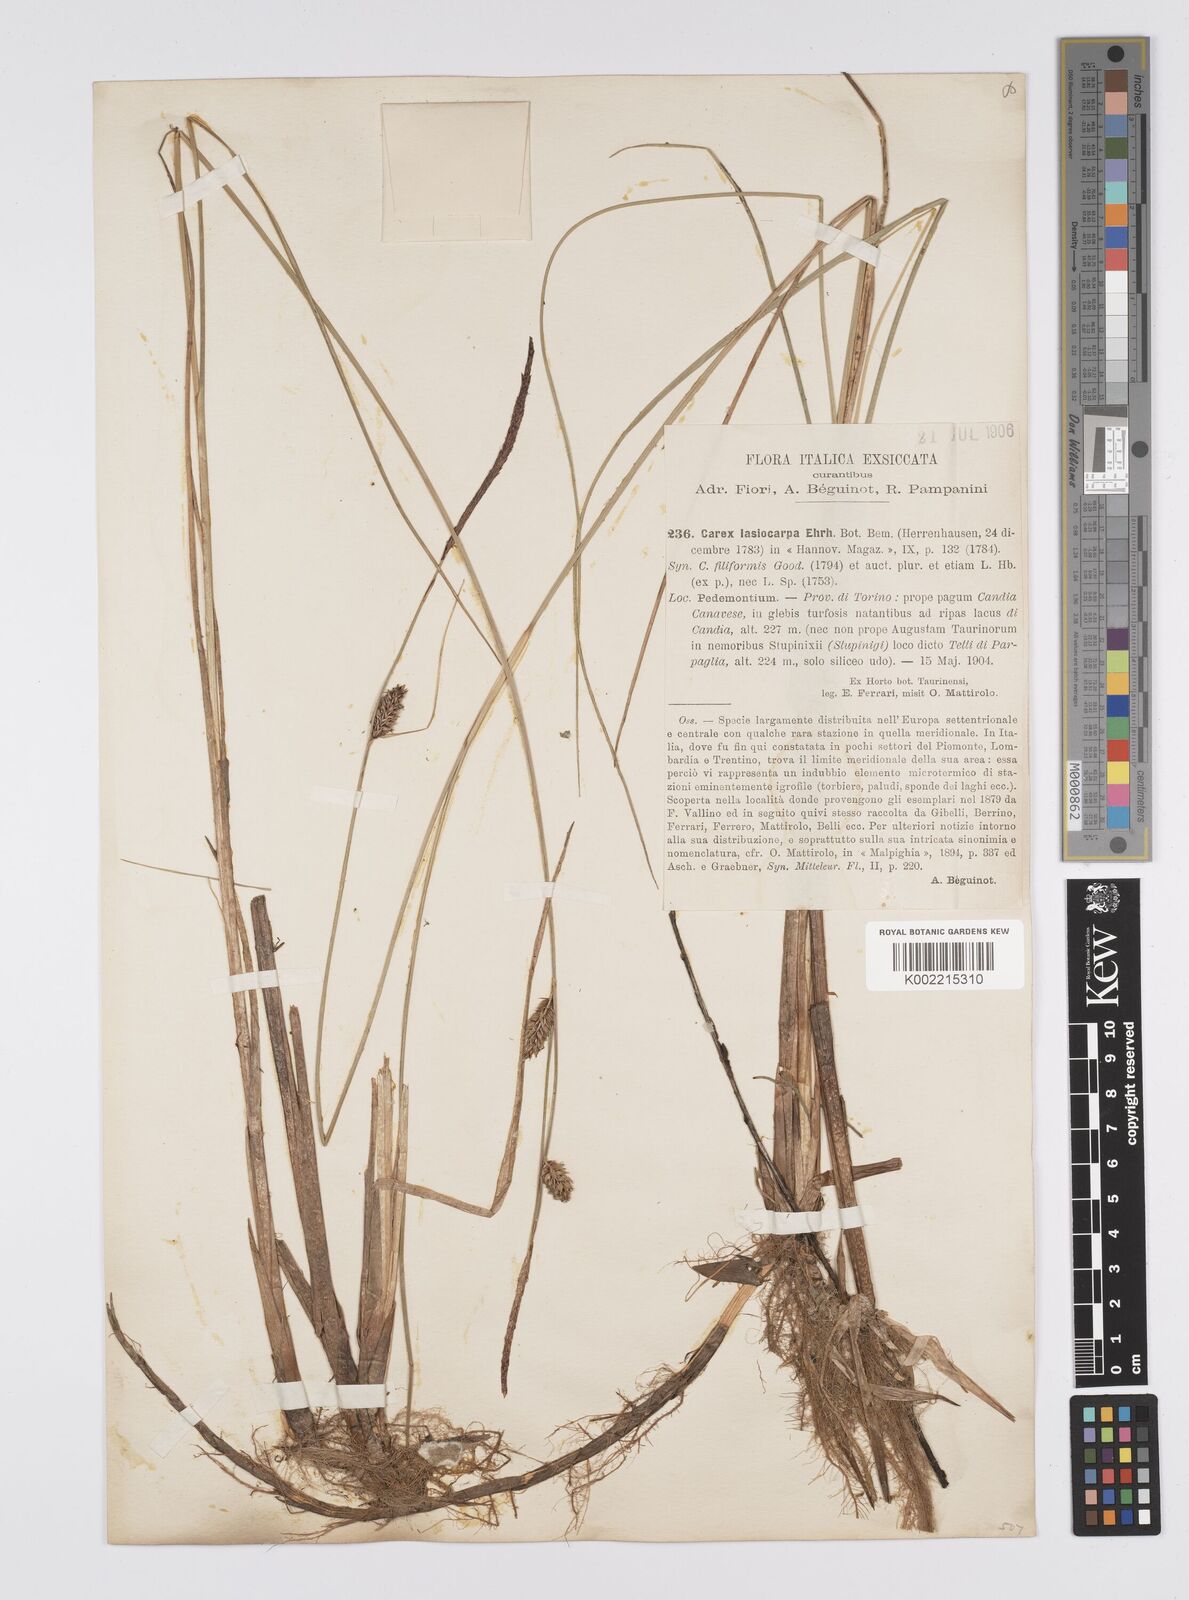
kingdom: Plantae
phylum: Tracheophyta
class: Liliopsida
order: Poales
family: Cyperaceae
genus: Carex
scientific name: Carex lasiocarpa
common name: Slender sedge
